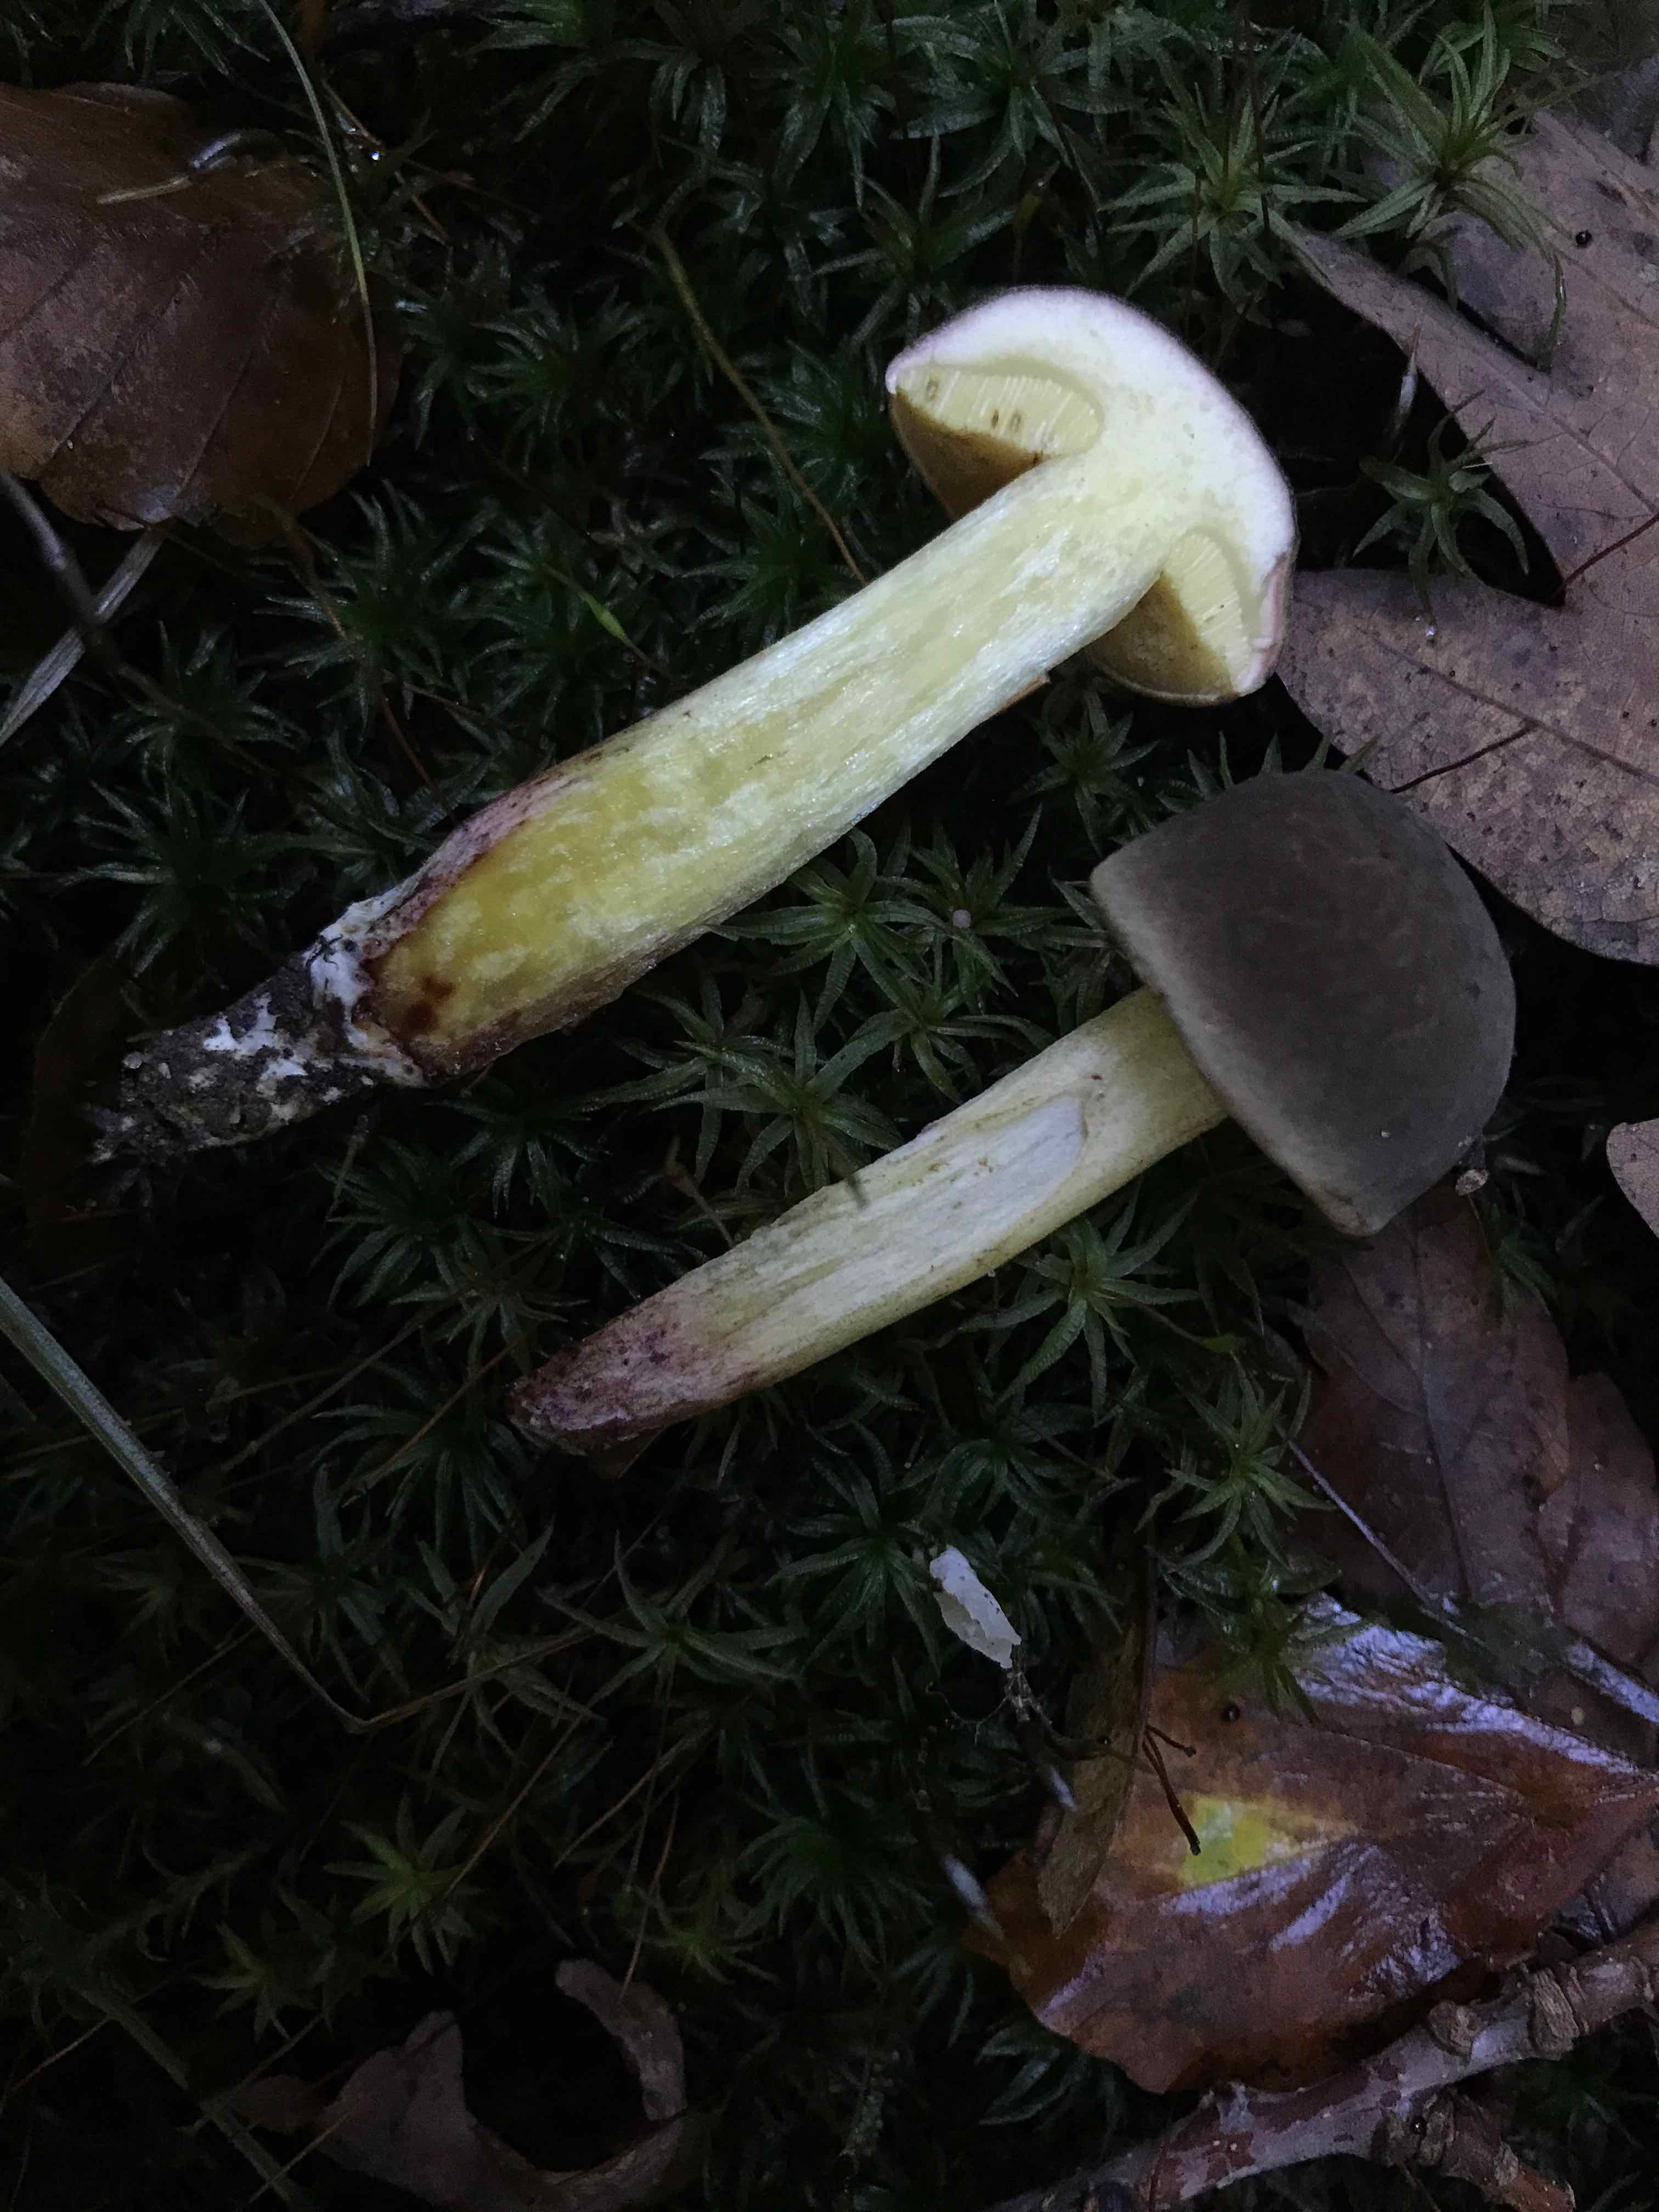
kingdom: Fungi
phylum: Basidiomycota
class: Agaricomycetes
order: Boletales
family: Boletaceae
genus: Xerocomellus
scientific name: Xerocomellus chrysenteron
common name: rødsprukken rørhat
